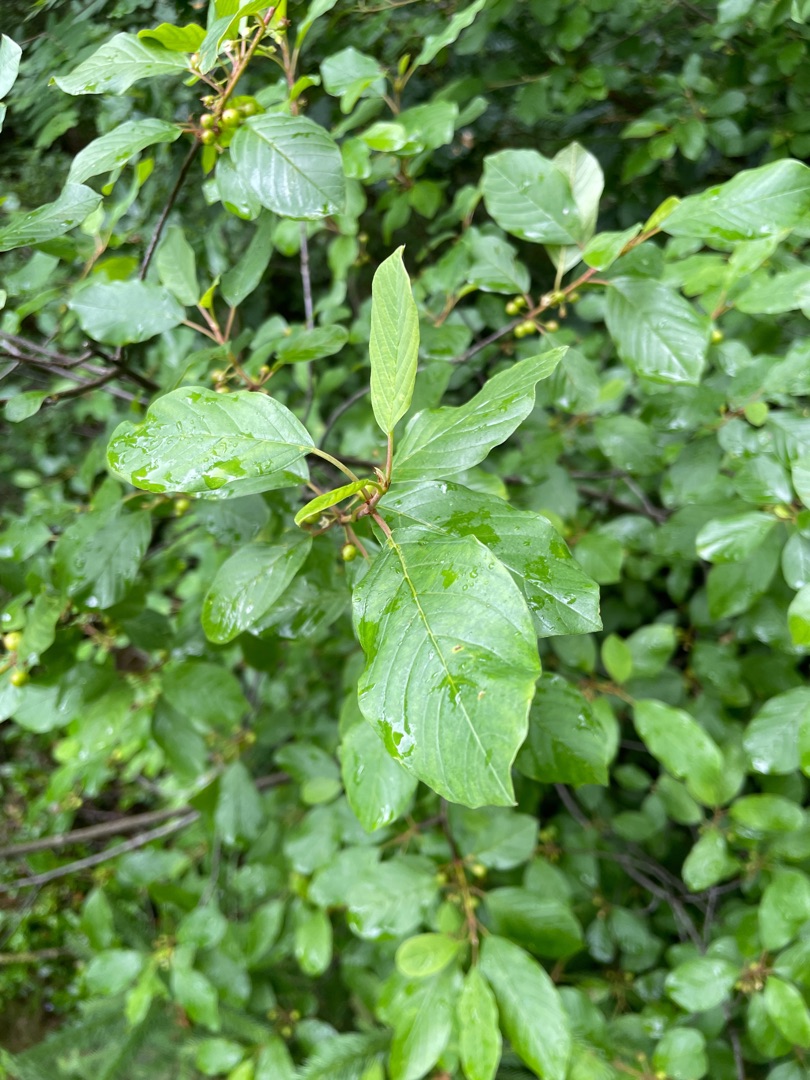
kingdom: Plantae
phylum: Tracheophyta
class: Magnoliopsida
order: Rosales
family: Rhamnaceae
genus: Frangula
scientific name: Frangula alnus
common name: Tørst
